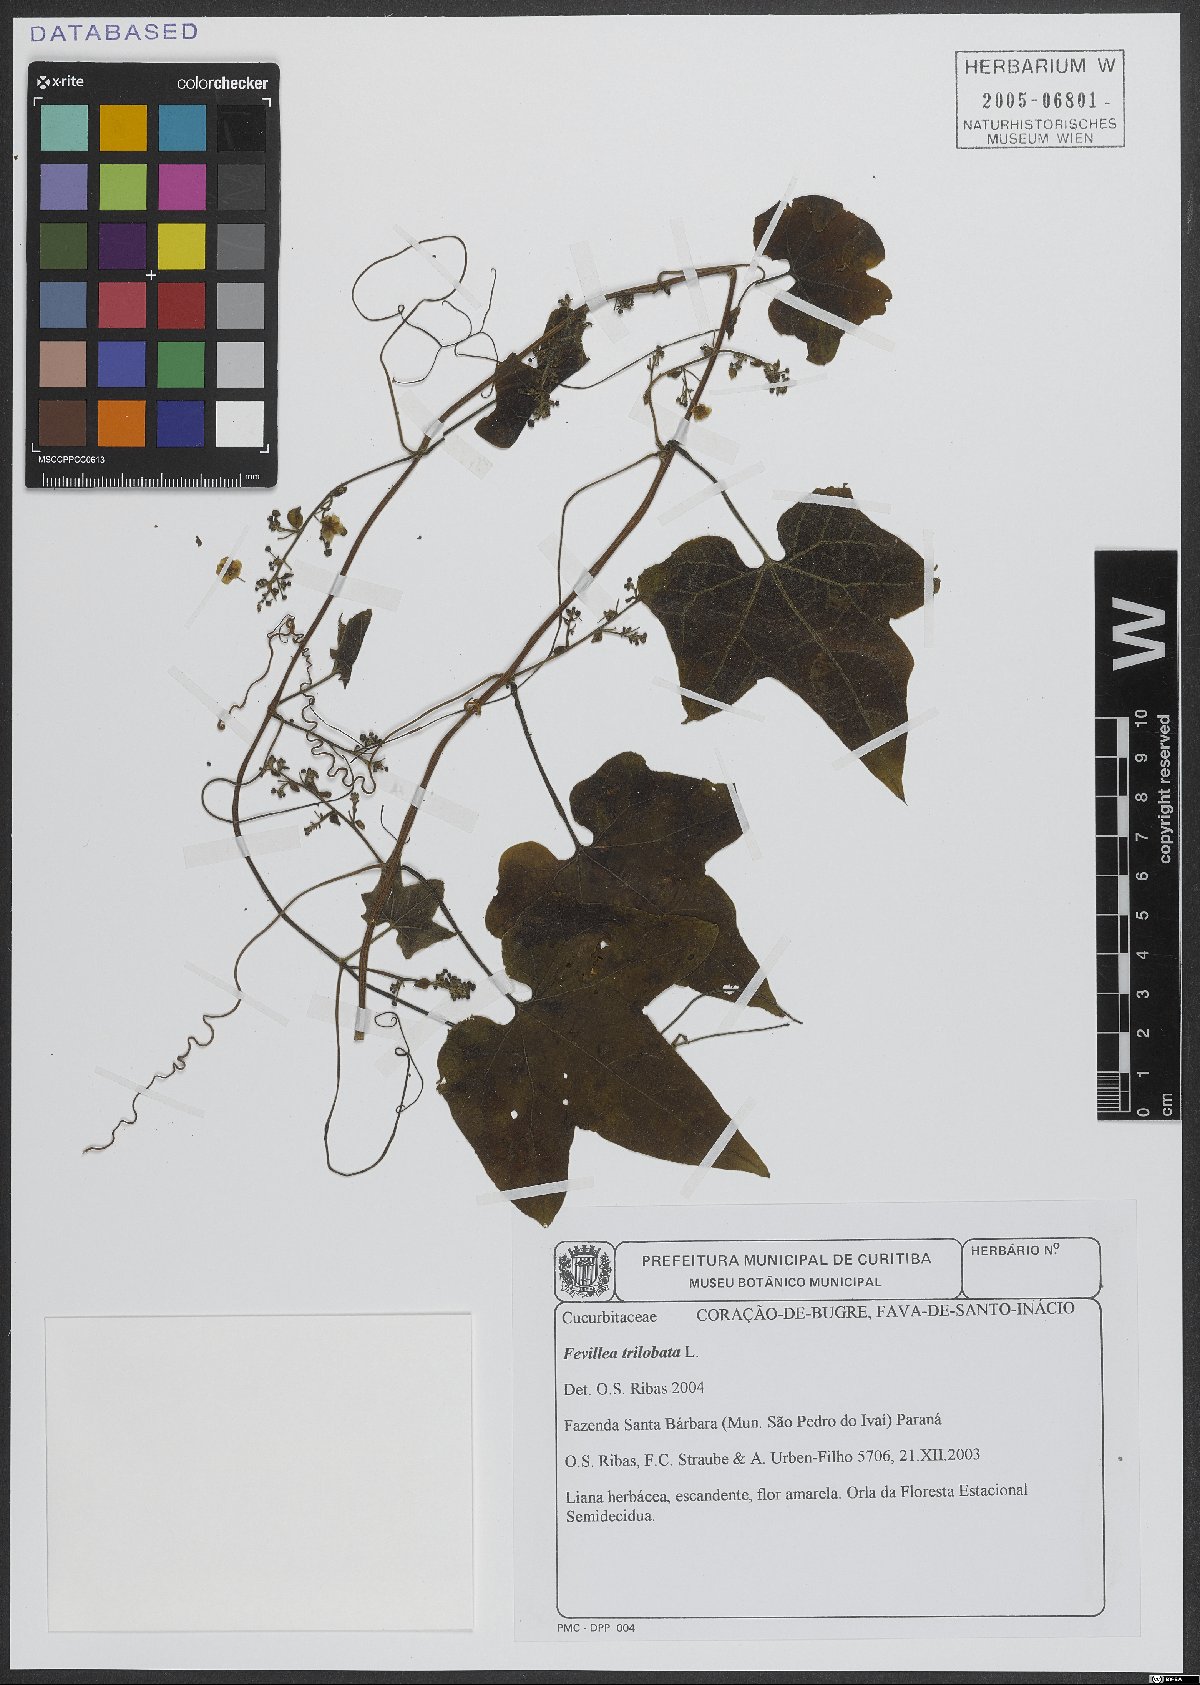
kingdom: Plantae
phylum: Tracheophyta
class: Magnoliopsida
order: Cucurbitales
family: Cucurbitaceae
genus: Fevillea
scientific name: Fevillea trilobata
